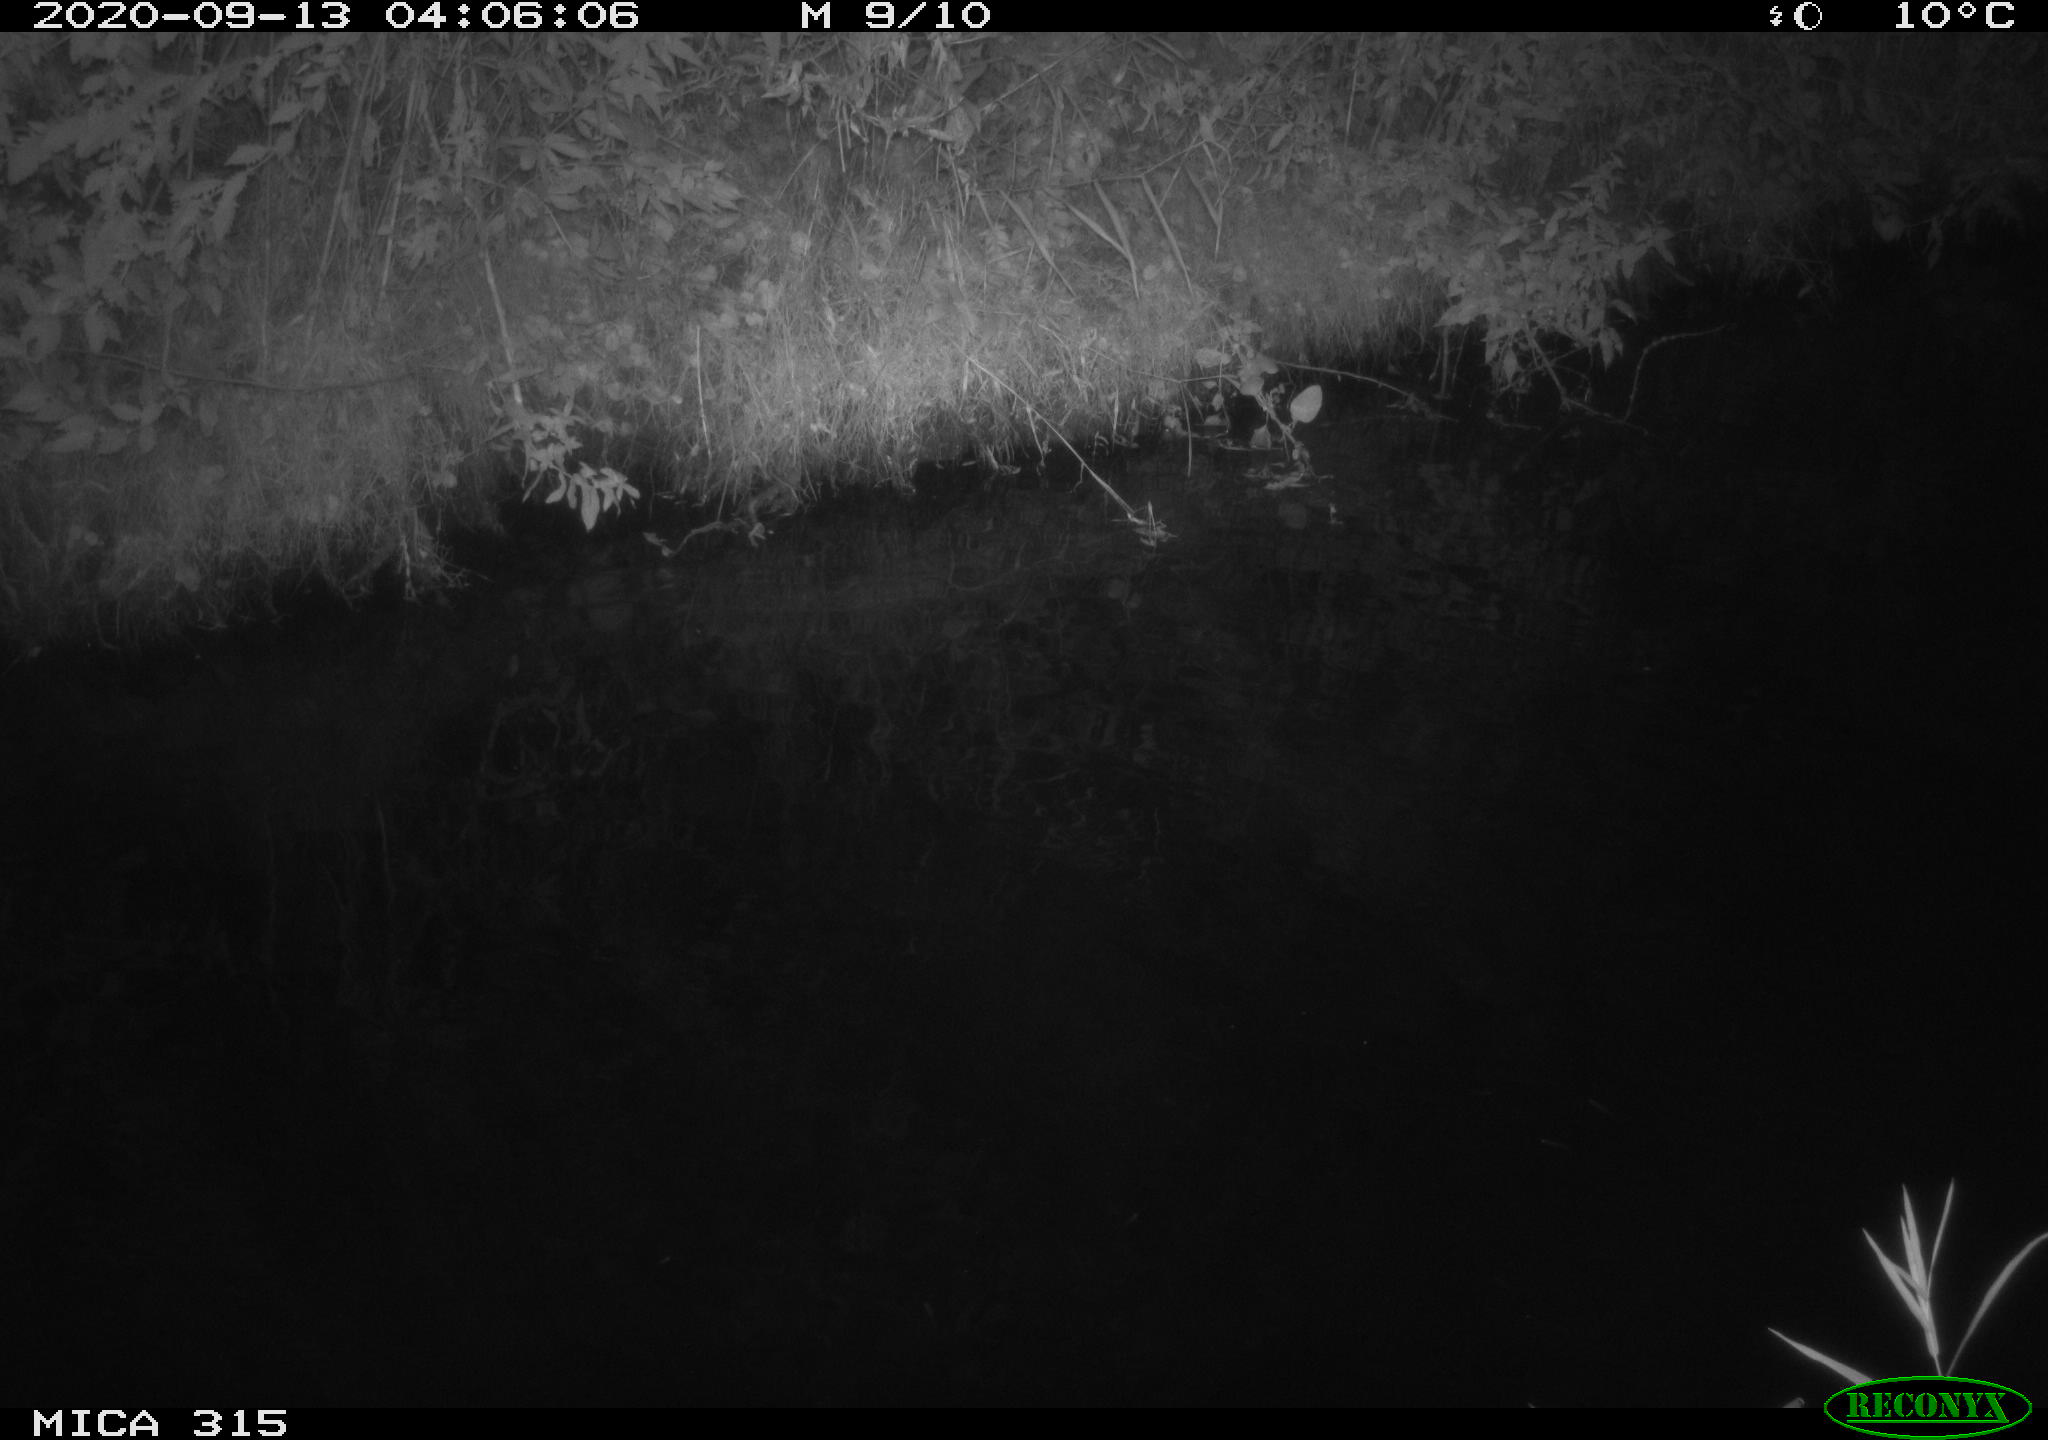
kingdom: Animalia
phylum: Chordata
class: Aves
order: Anseriformes
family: Anatidae
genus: Anas
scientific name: Anas platyrhynchos
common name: Mallard
